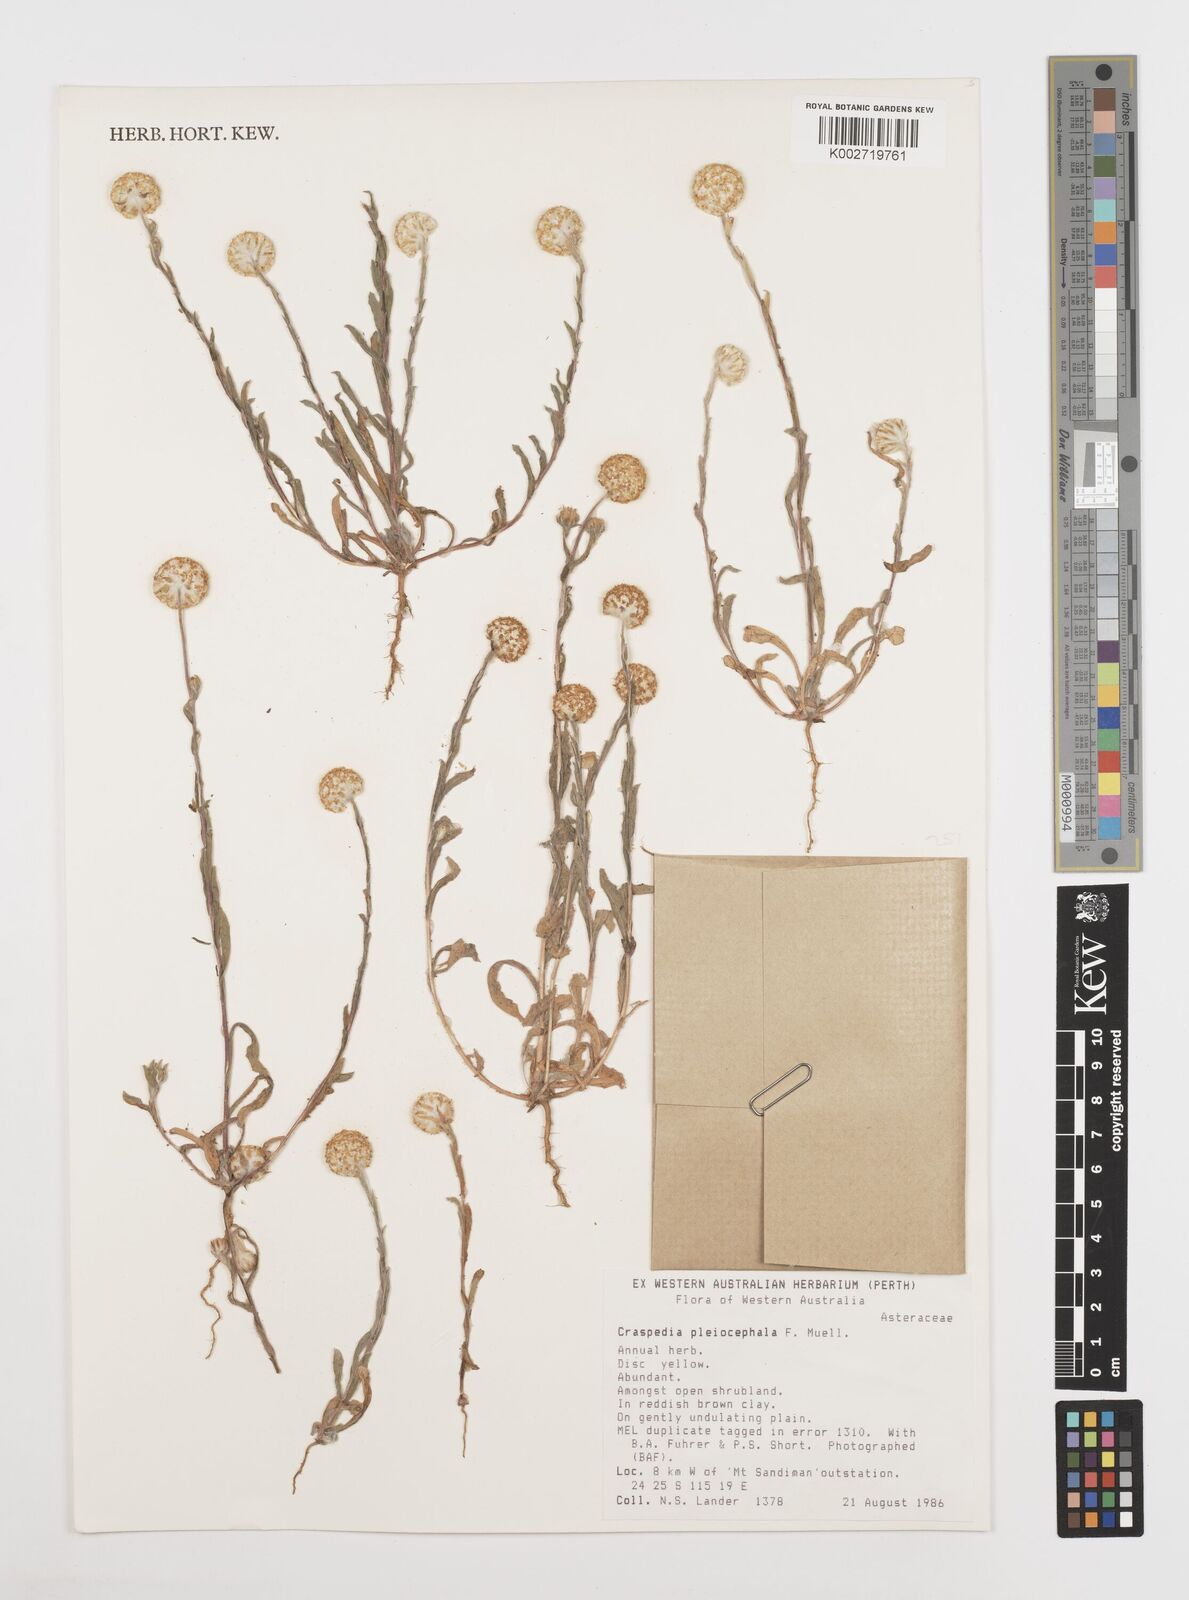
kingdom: Plantae
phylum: Tracheophyta
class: Magnoliopsida
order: Asterales
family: Asteraceae
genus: Pycnosorus
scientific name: Pycnosorus pleiocephalus
